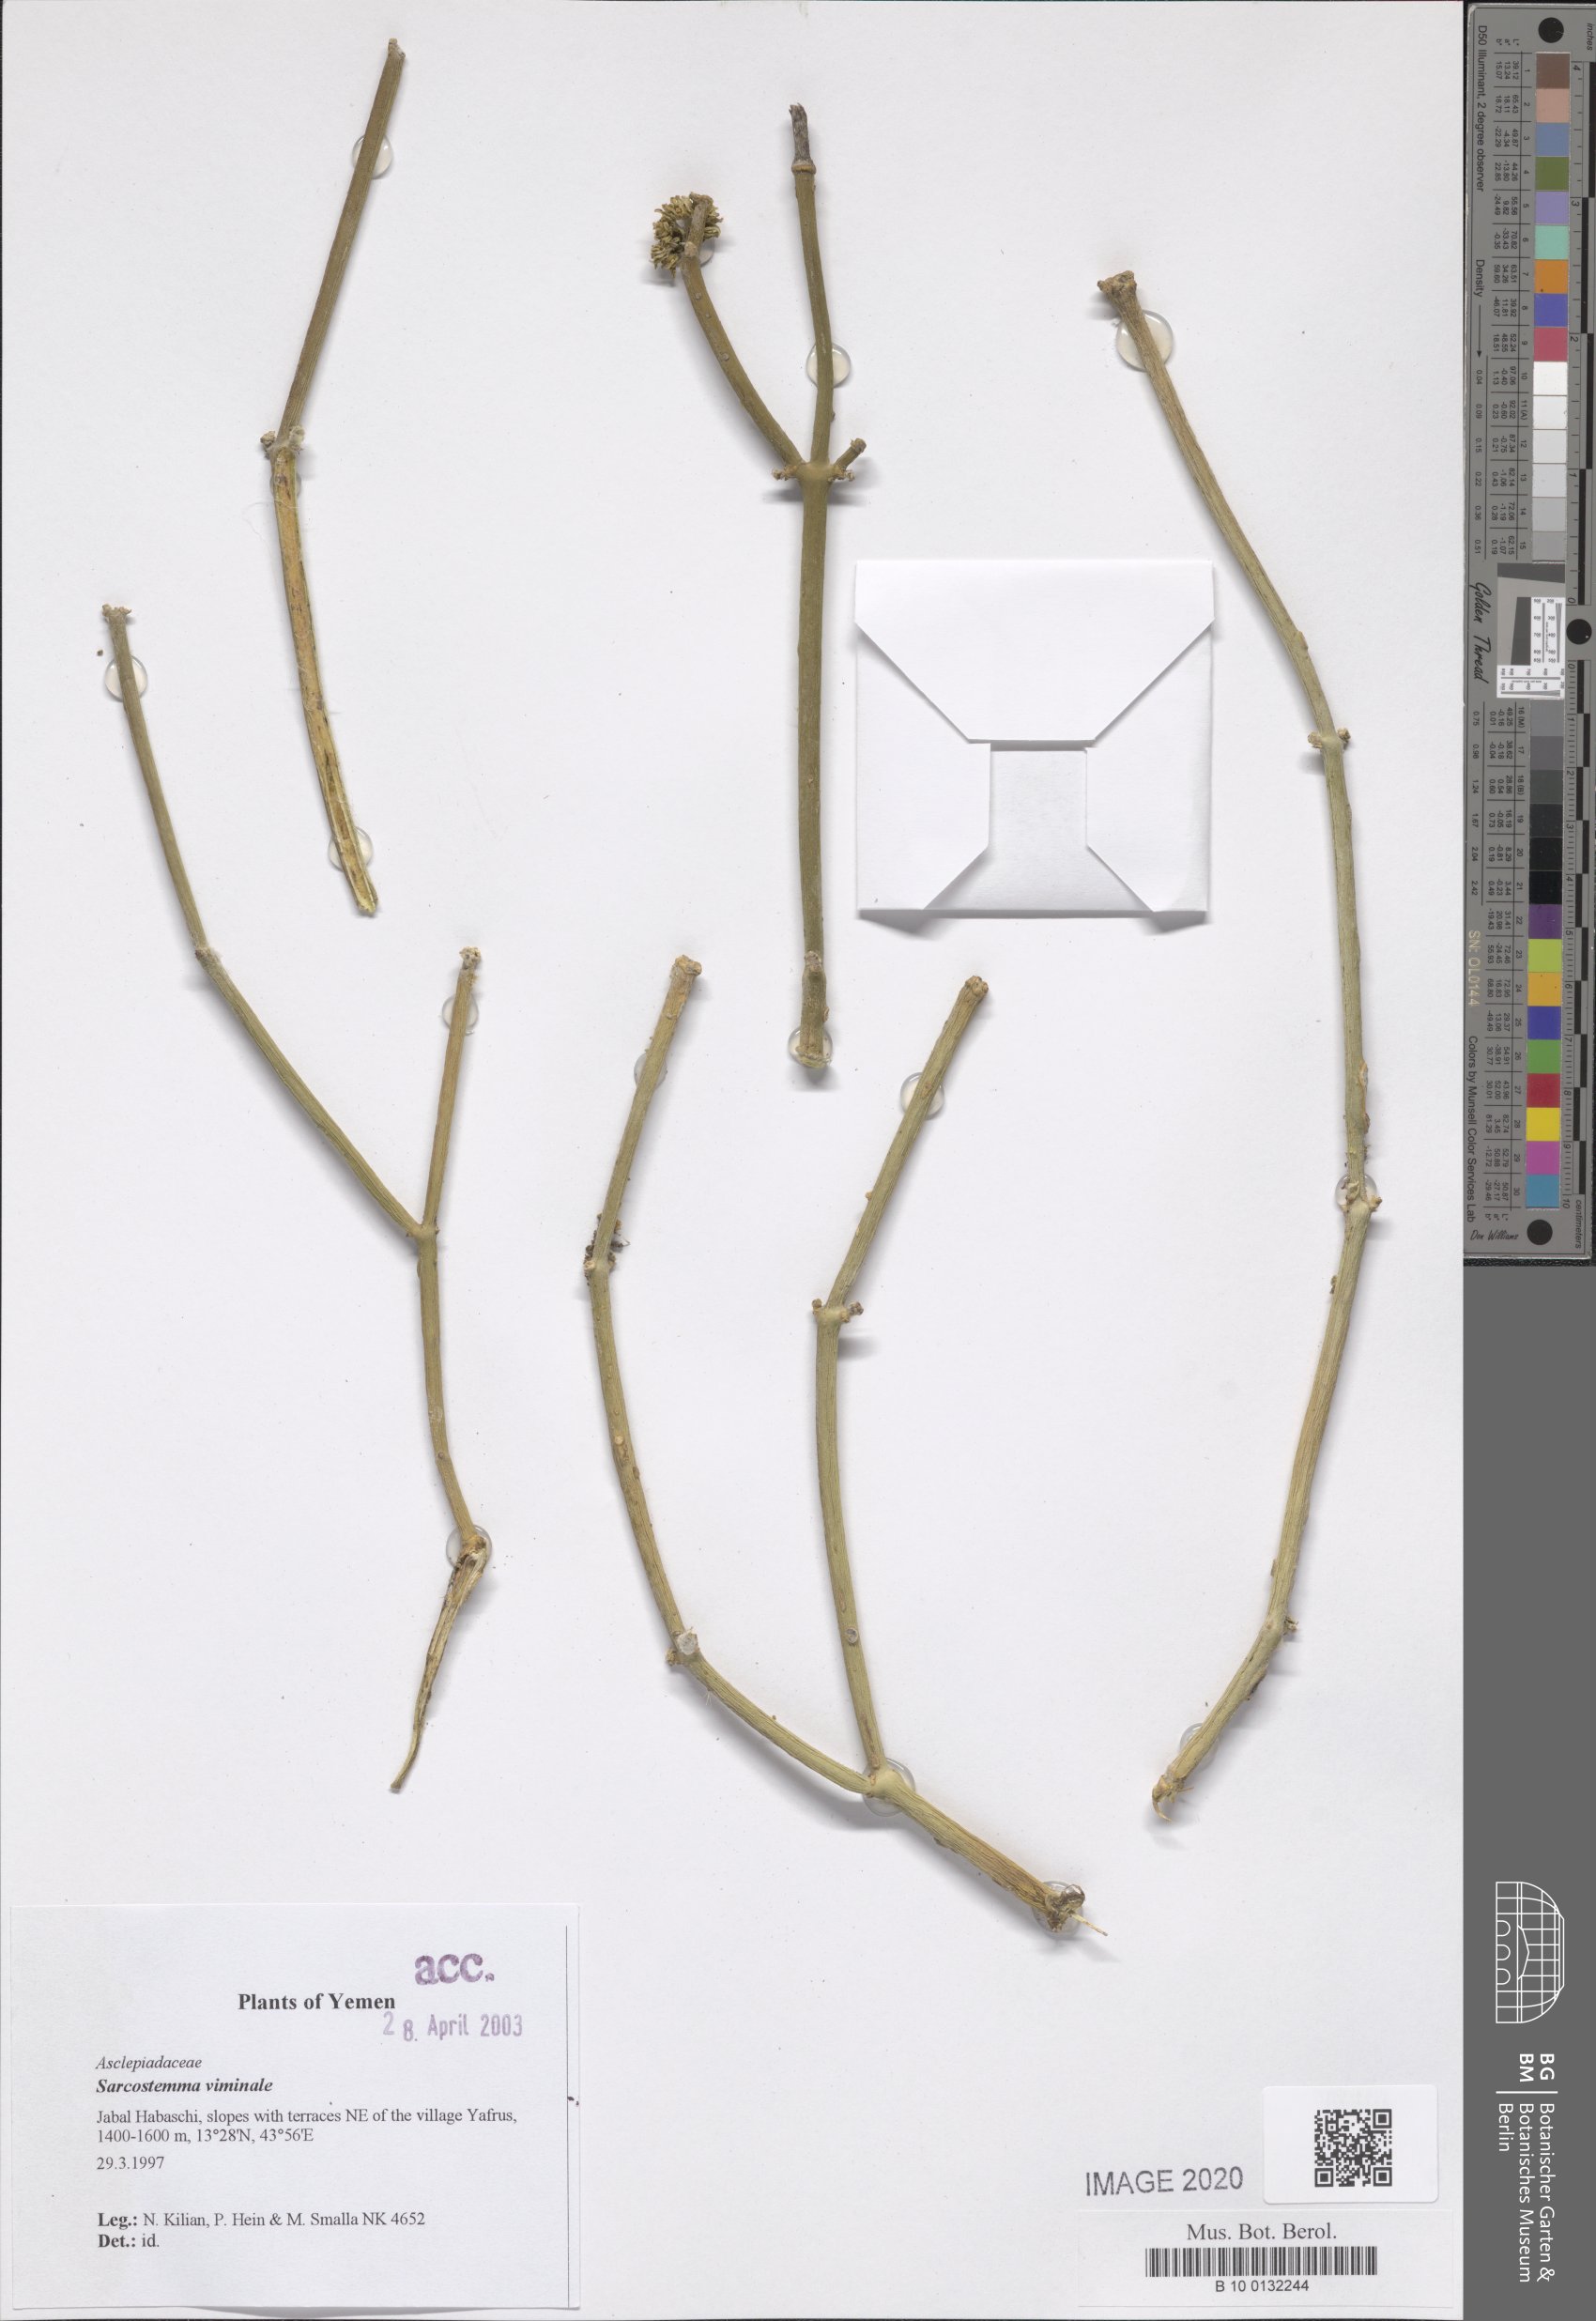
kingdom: Plantae
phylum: Tracheophyta
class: Magnoliopsida
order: Gentianales
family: Apocynaceae
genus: Cynanchum
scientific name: Cynanchum viminale
